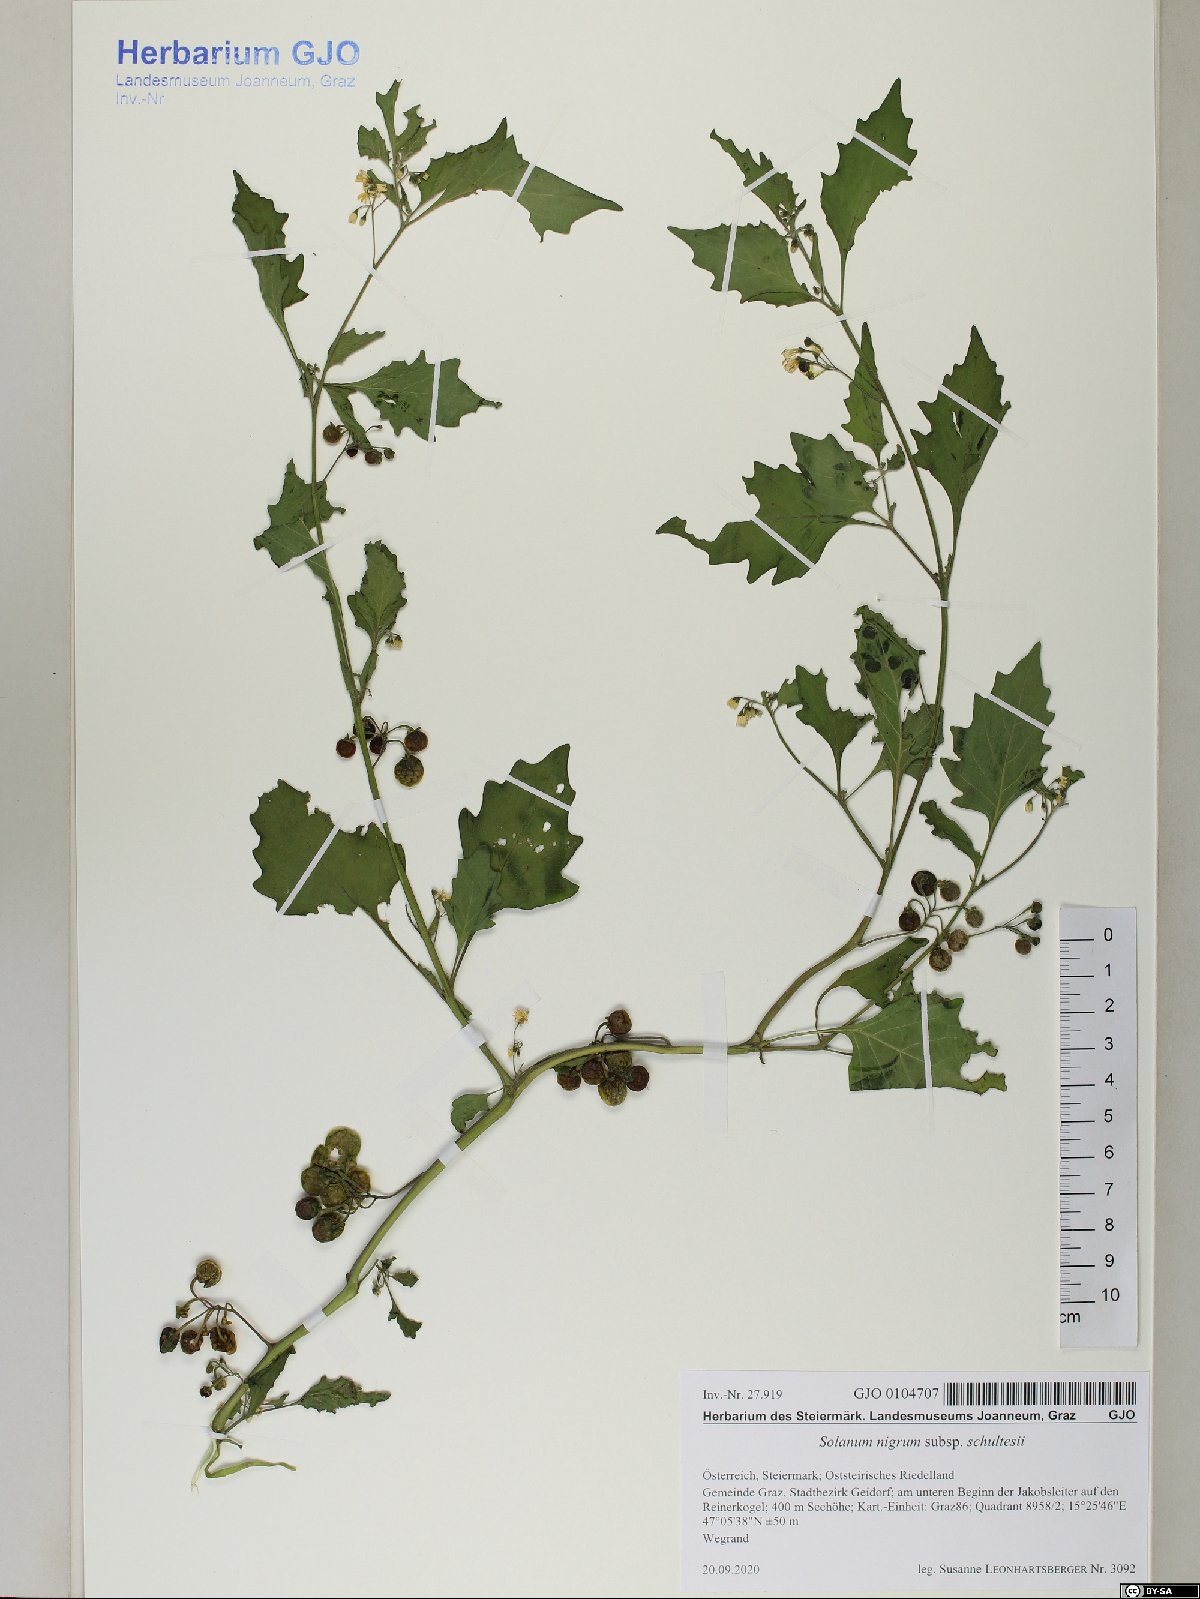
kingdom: Plantae
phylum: Tracheophyta
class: Magnoliopsida
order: Solanales
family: Solanaceae
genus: Solanum
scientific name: Solanum decipiens
